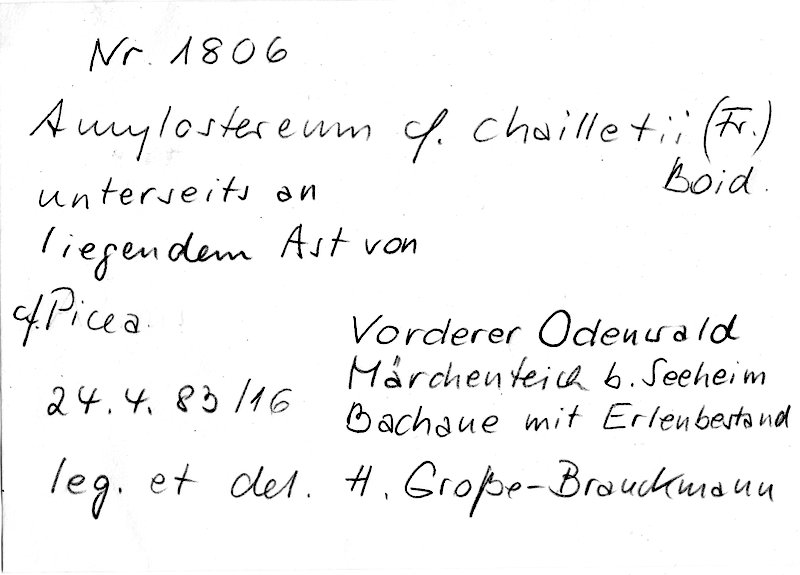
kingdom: Fungi
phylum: Basidiomycota
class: Agaricomycetes
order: Russulales
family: Echinodontiaceae
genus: Amylostereum
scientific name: Amylostereum chailletii
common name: Powdered duster
